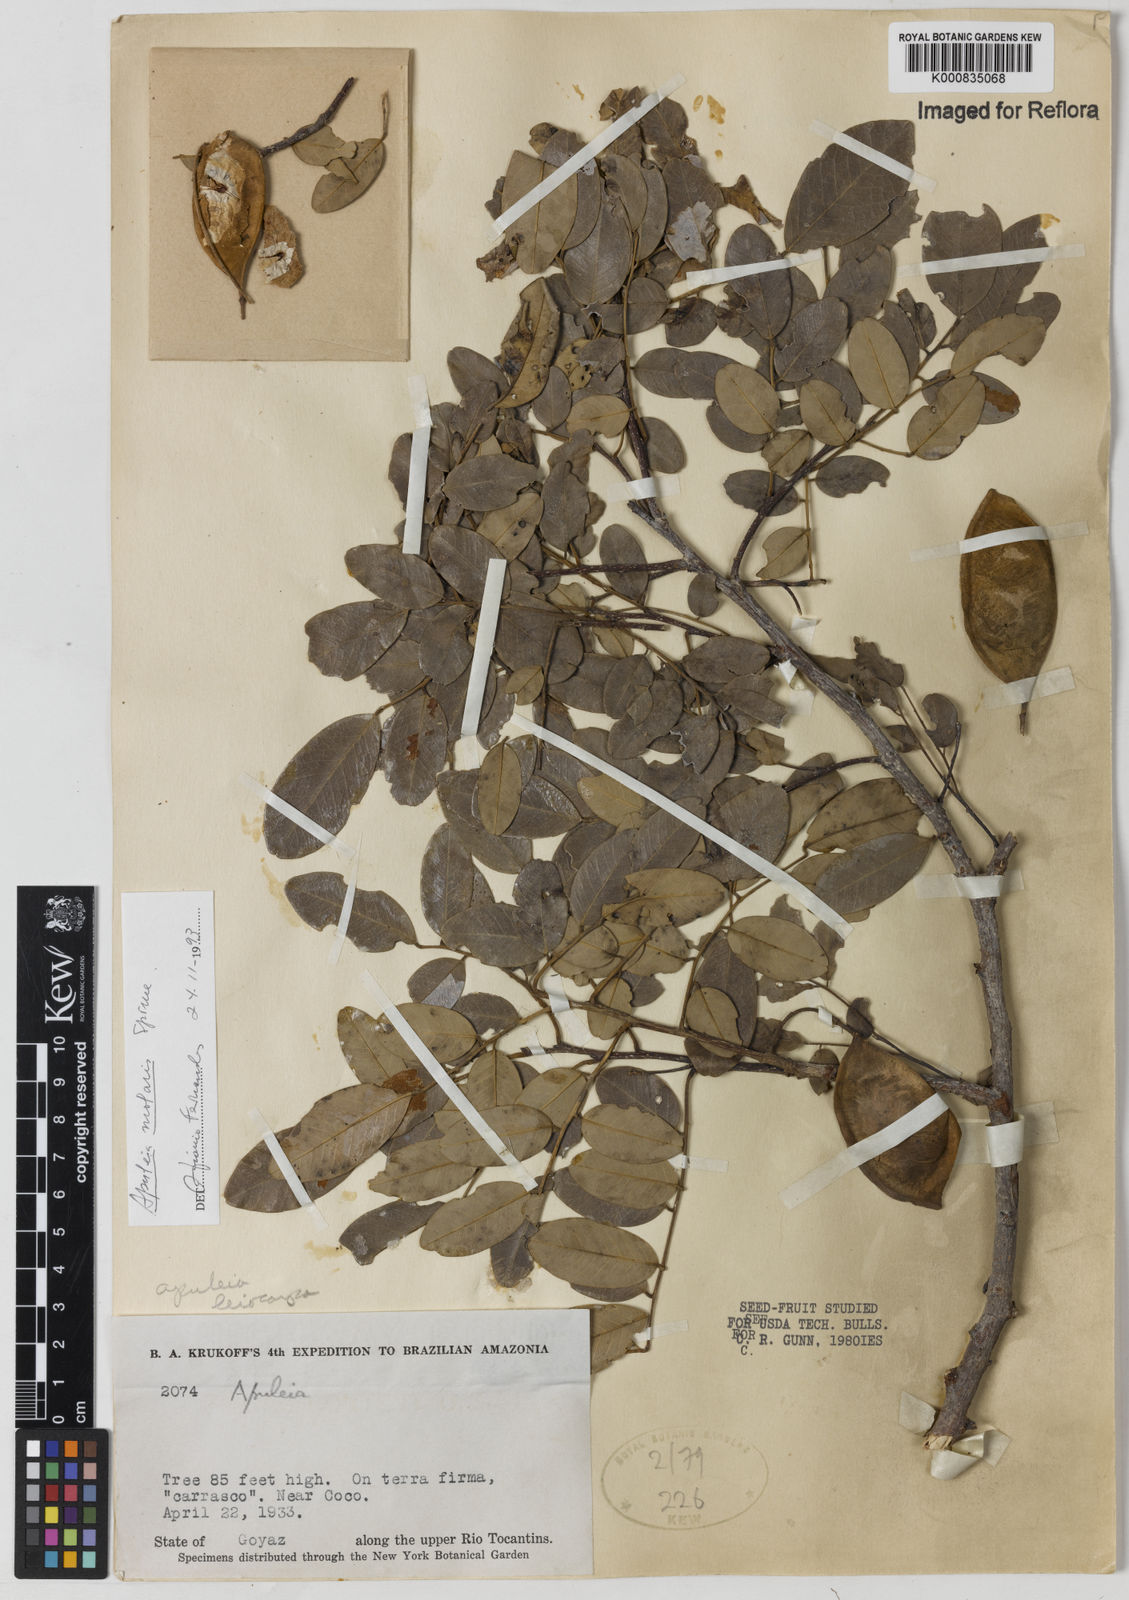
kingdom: Plantae
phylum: Tracheophyta
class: Magnoliopsida
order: Fabales
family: Fabaceae
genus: Apuleia
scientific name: Apuleia leiocarpa
